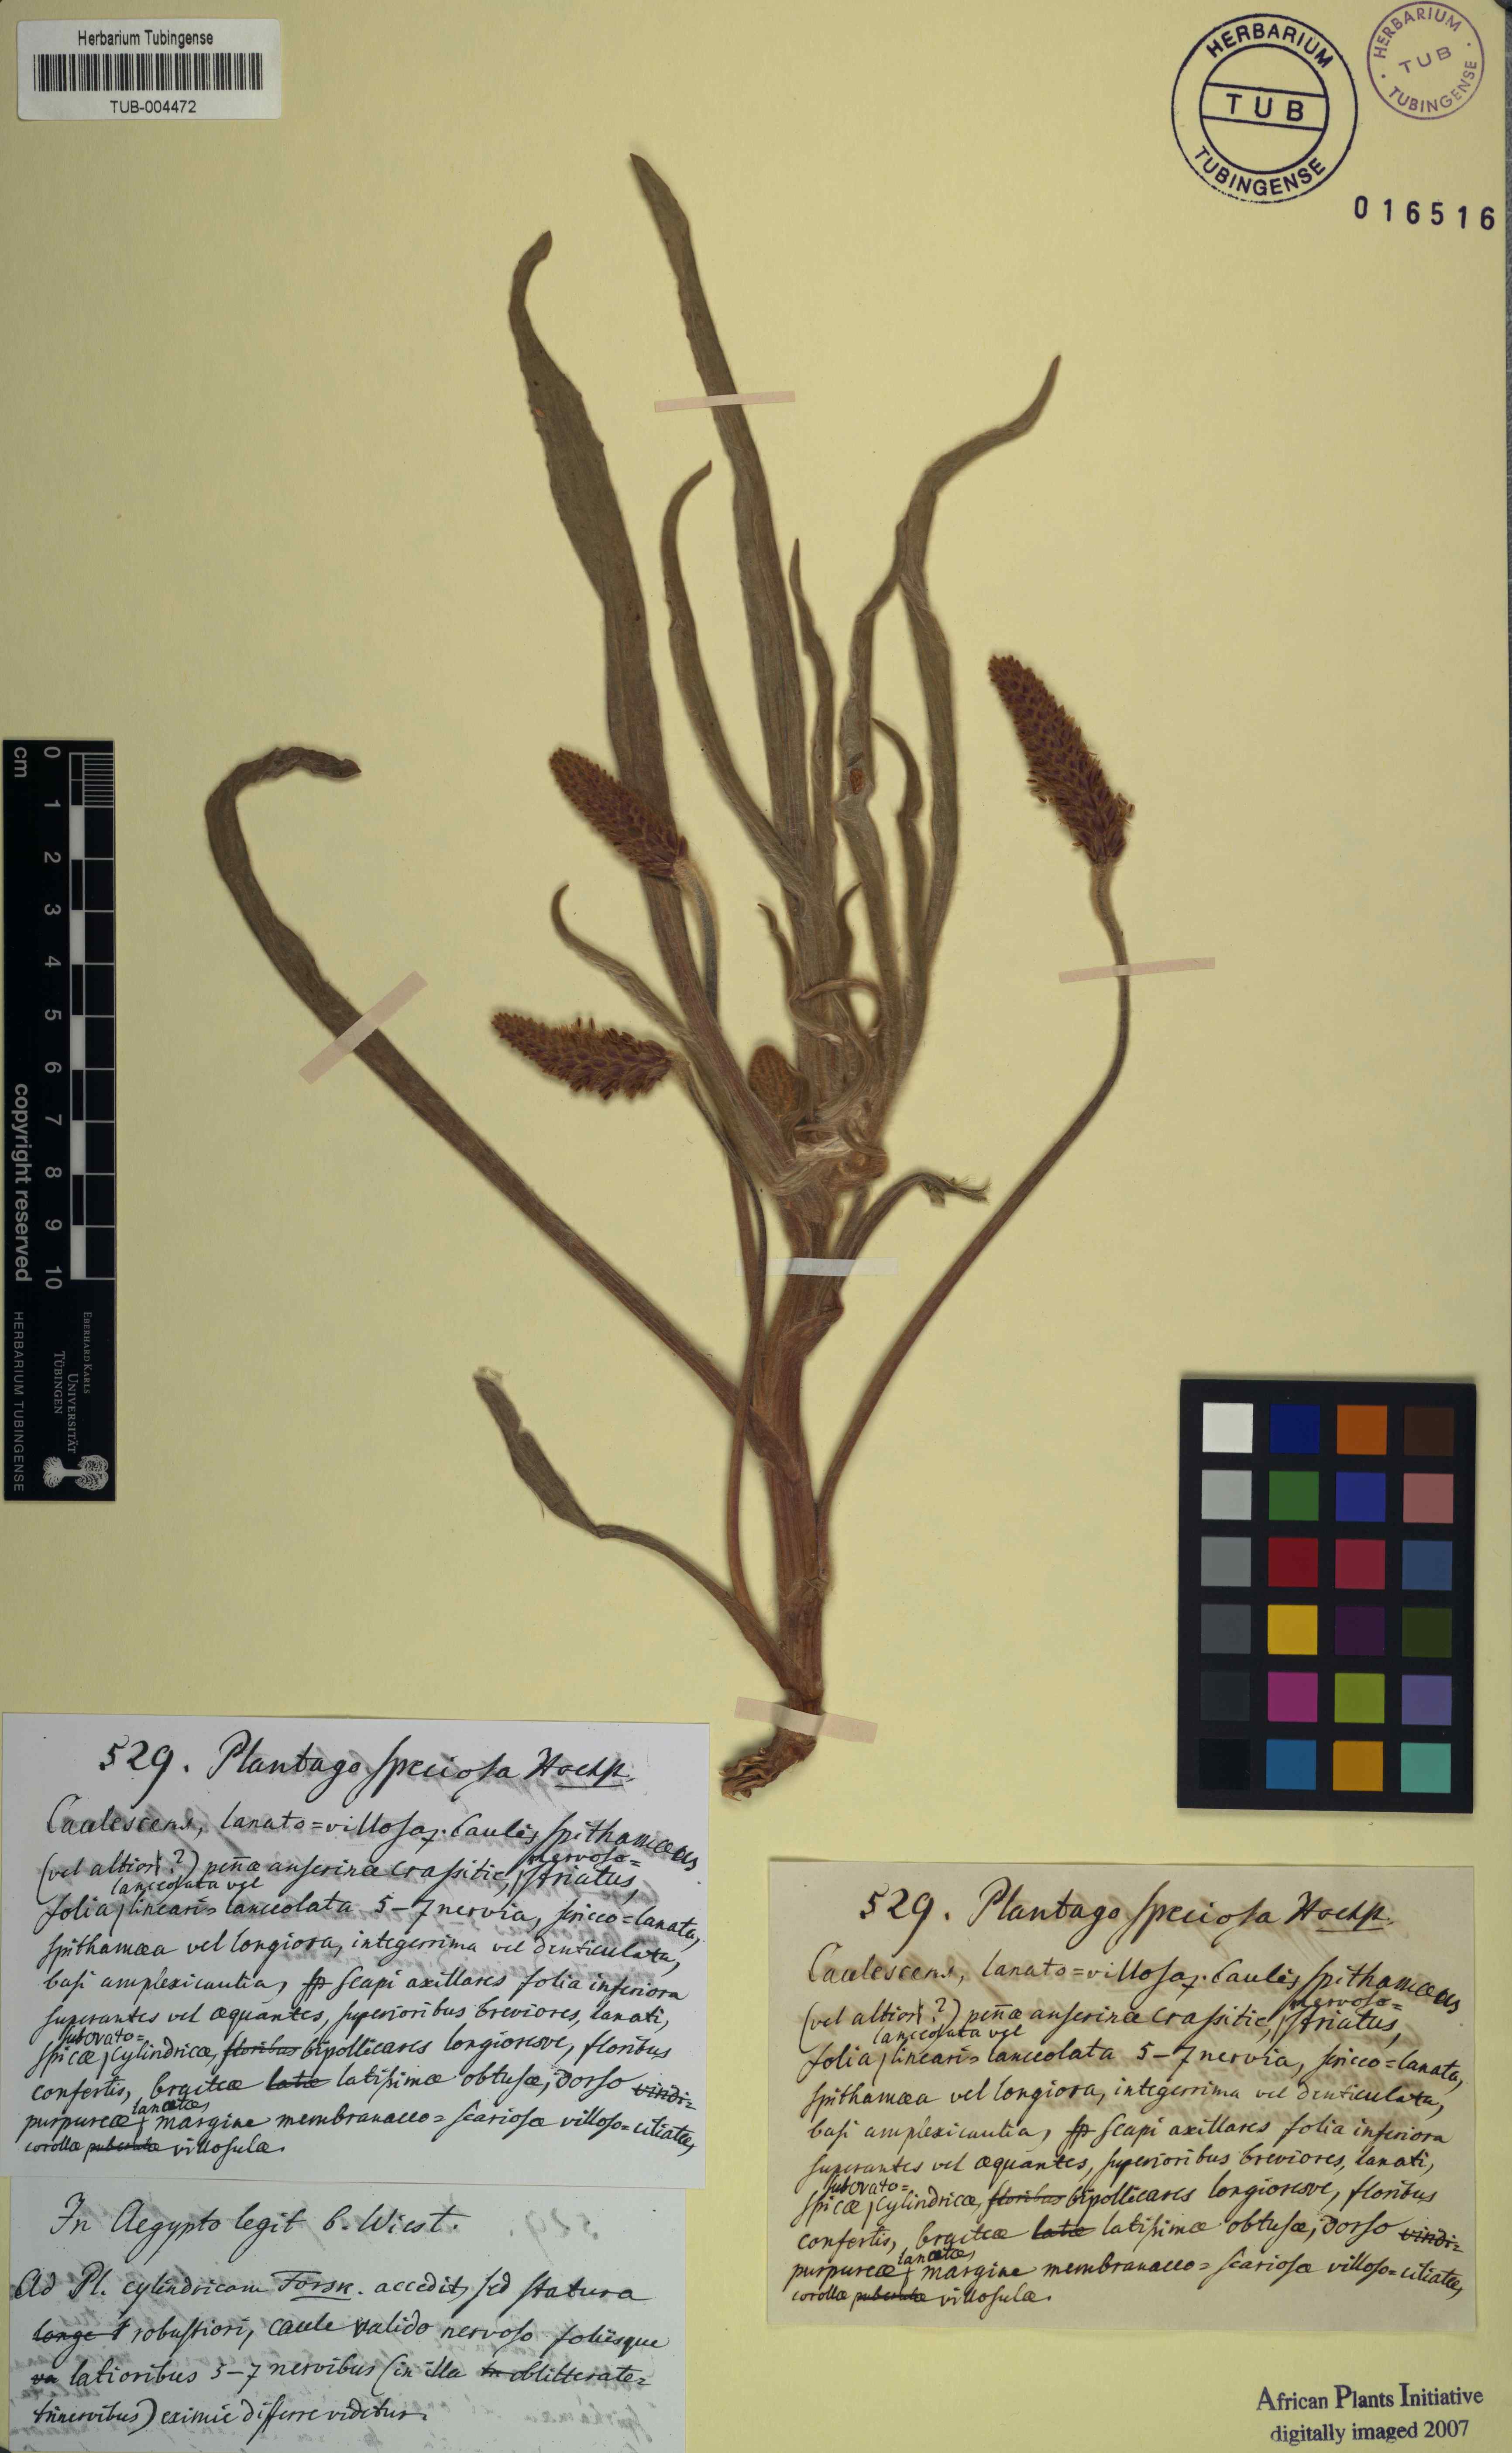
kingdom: Plantae
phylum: Tracheophyta
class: Magnoliopsida
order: Lamiales
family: Plantaginaceae
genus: Plantago
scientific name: Plantago erecta
